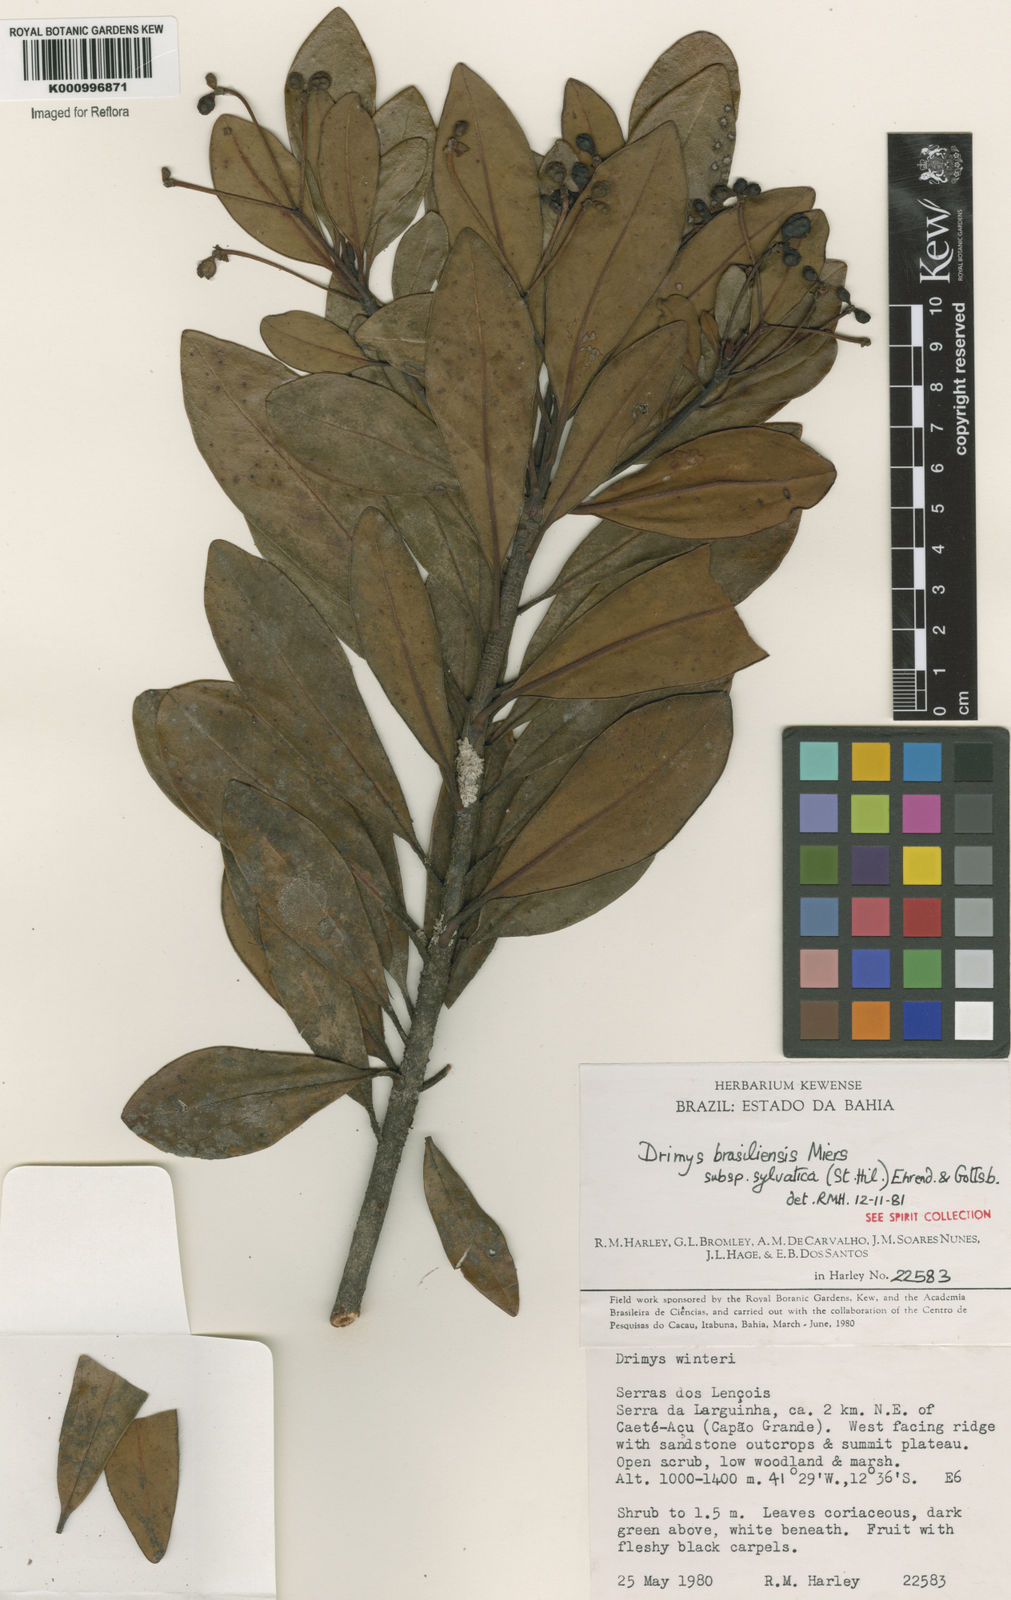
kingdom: Plantae
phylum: Tracheophyta
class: Magnoliopsida
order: Canellales
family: Winteraceae
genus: Drimys
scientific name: Drimys brasiliensis
